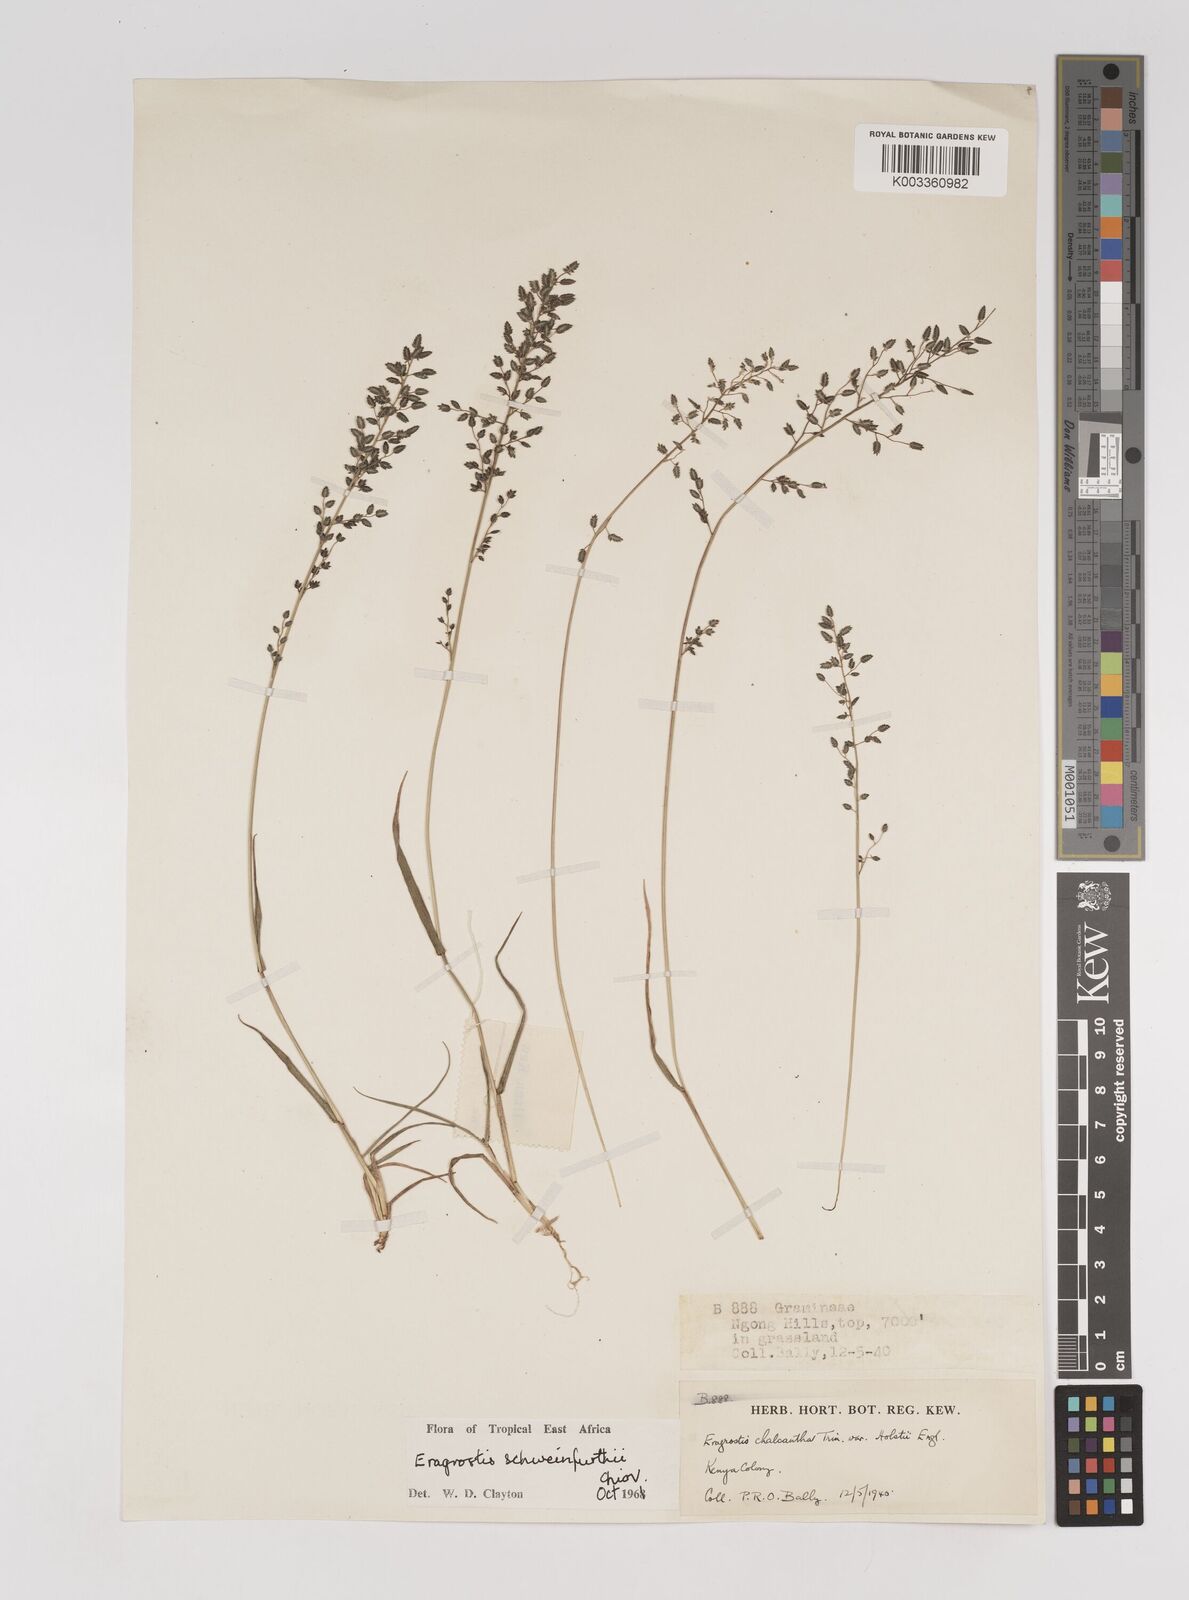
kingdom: Plantae
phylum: Tracheophyta
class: Liliopsida
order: Poales
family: Poaceae
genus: Eragrostis
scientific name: Eragrostis schweinfurthii
